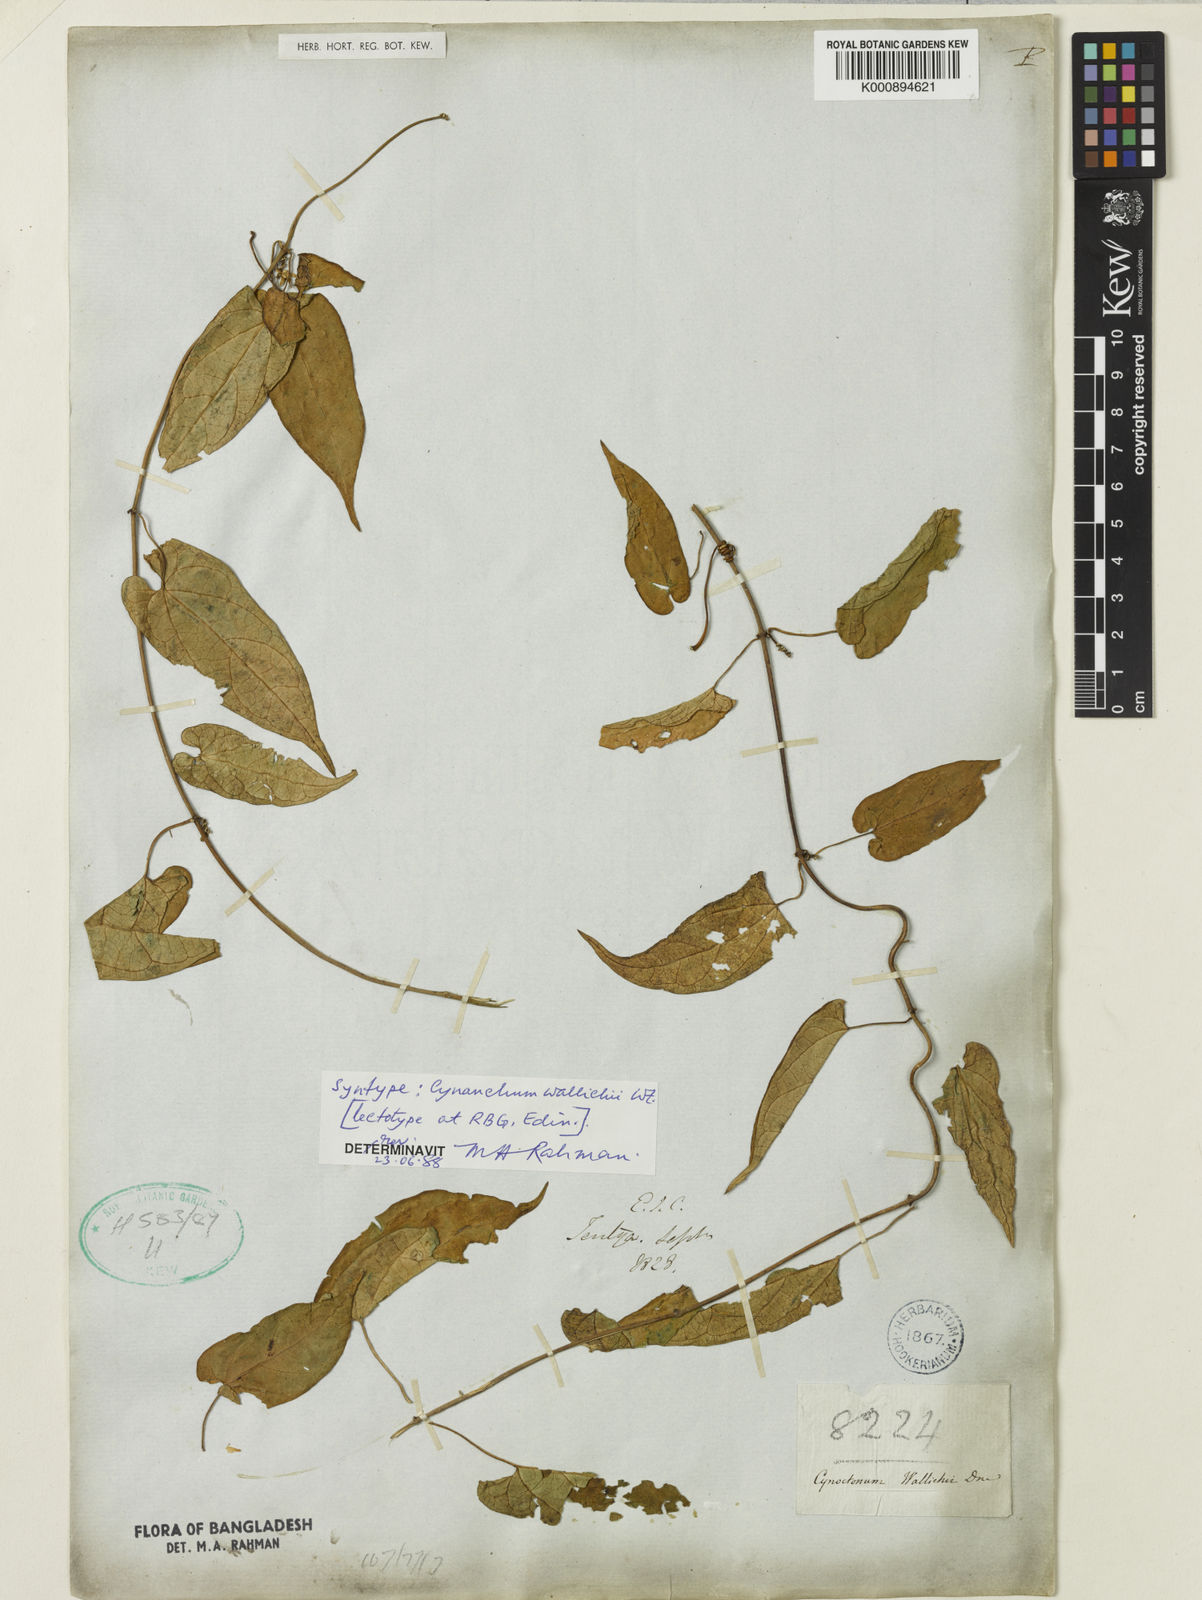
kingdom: Plantae
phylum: Tracheophyta
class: Magnoliopsida
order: Gentianales
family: Apocynaceae
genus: Cynanchum
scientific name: Cynanchum wallichii
